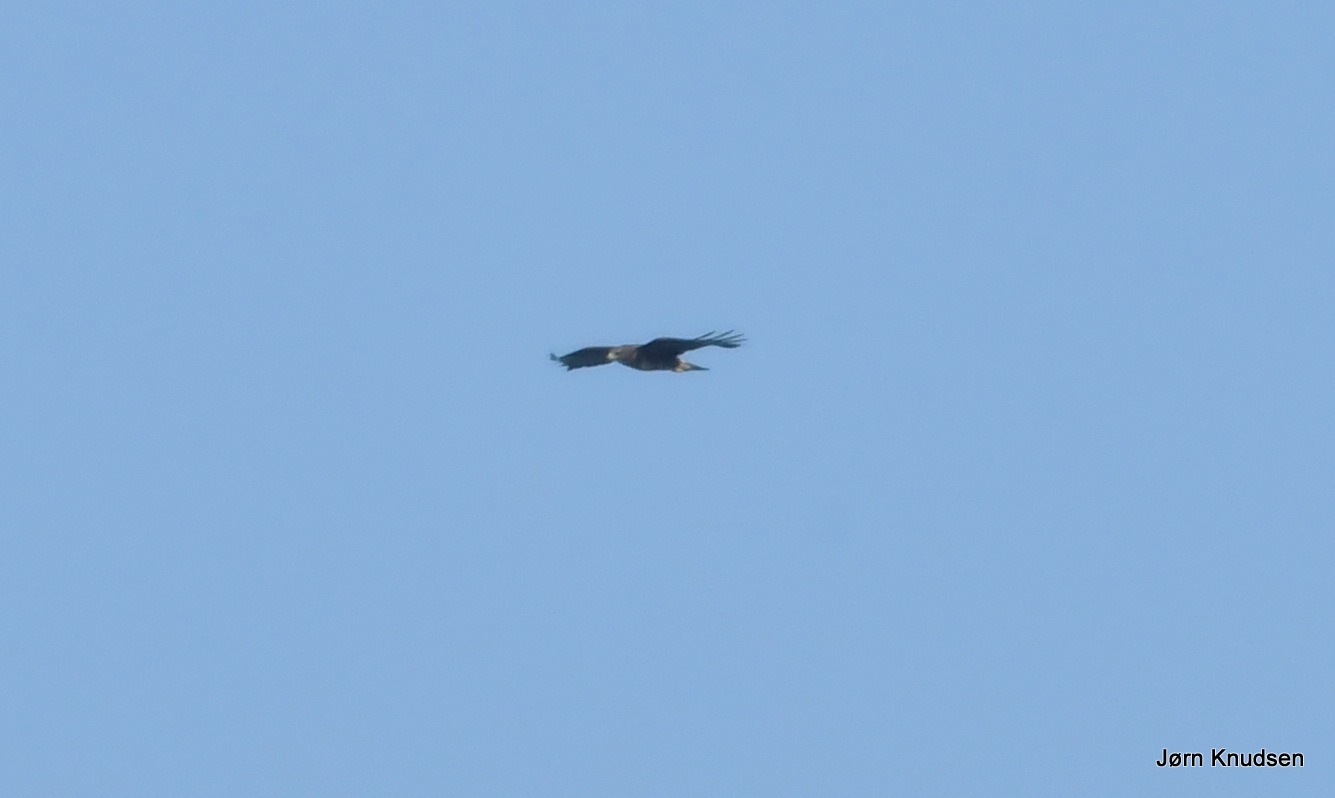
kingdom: Animalia
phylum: Chordata
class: Aves
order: Accipitriformes
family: Accipitridae
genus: Buteo
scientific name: Buteo buteo
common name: Musvåge
